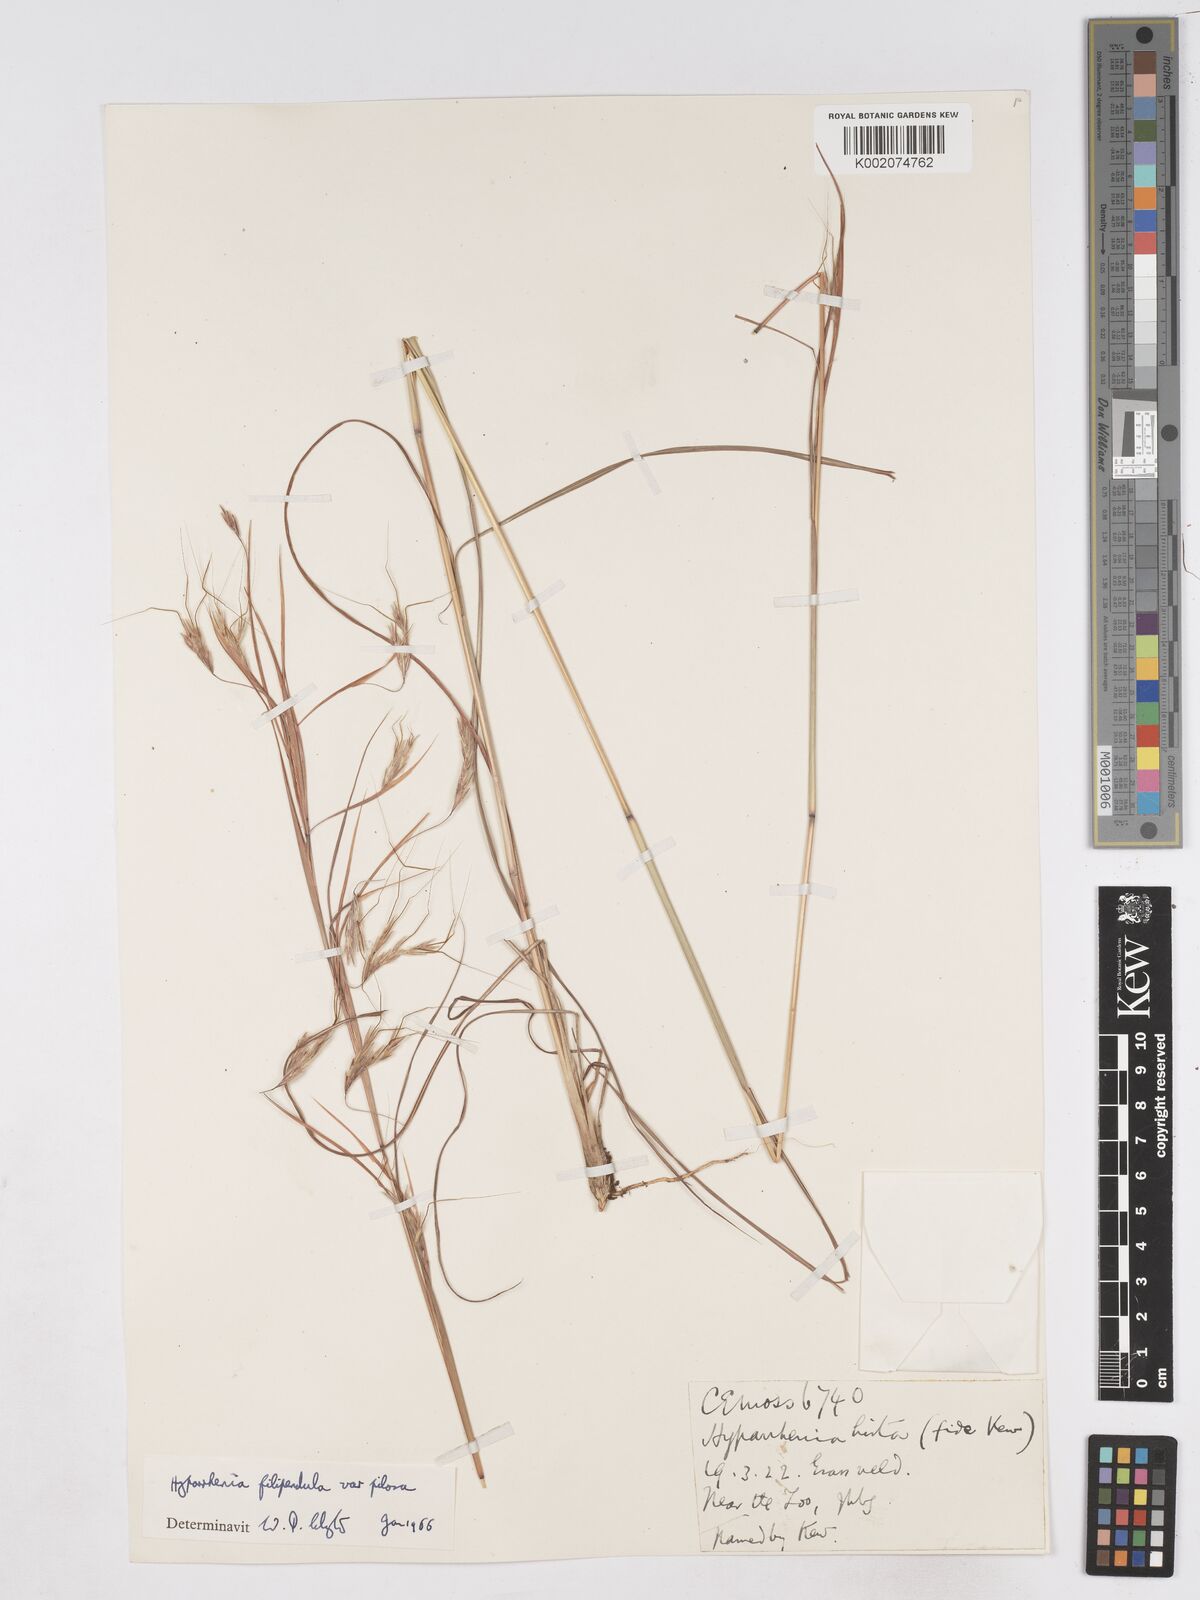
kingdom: Plantae
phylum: Tracheophyta
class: Liliopsida
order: Poales
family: Poaceae
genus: Hyparrhenia
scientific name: Hyparrhenia filipendula
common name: Tambookie grass
